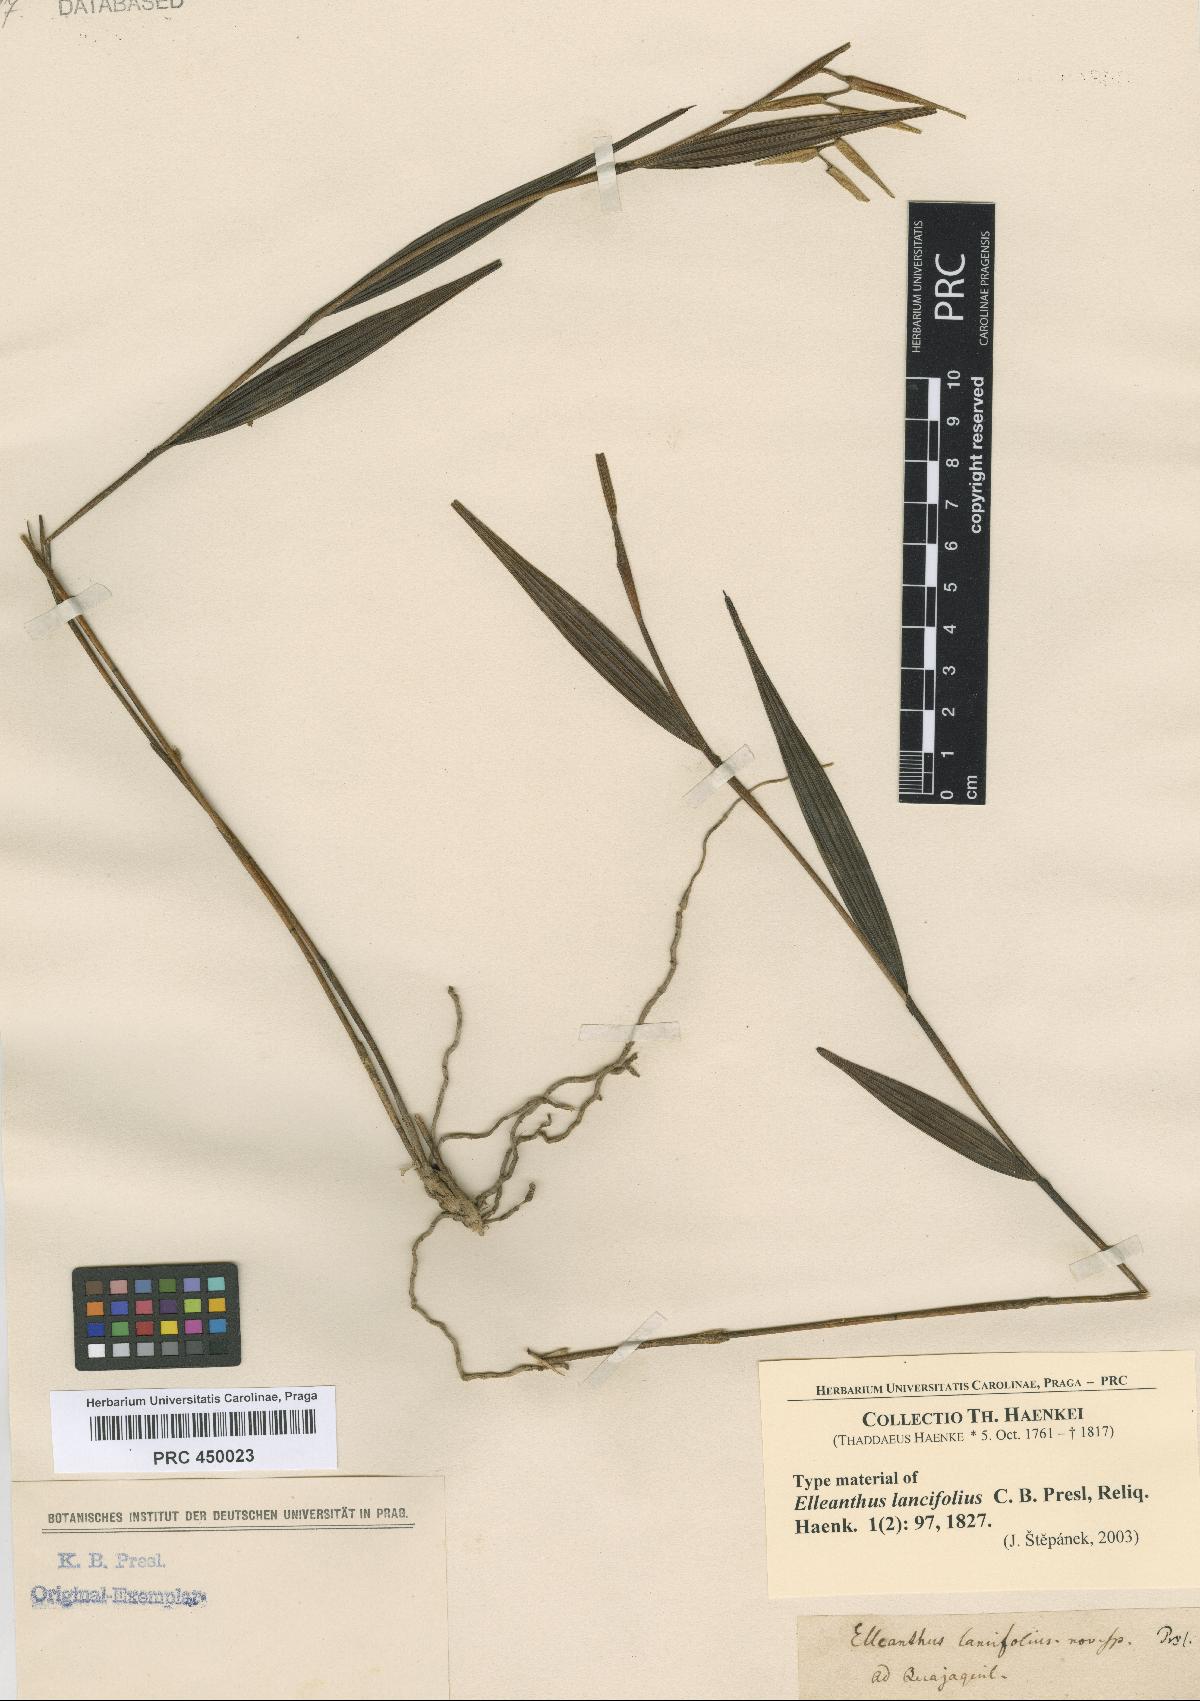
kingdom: Plantae
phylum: Tracheophyta
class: Liliopsida
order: Asparagales
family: Orchidaceae
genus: Elleanthus
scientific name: Elleanthus lancifolius
